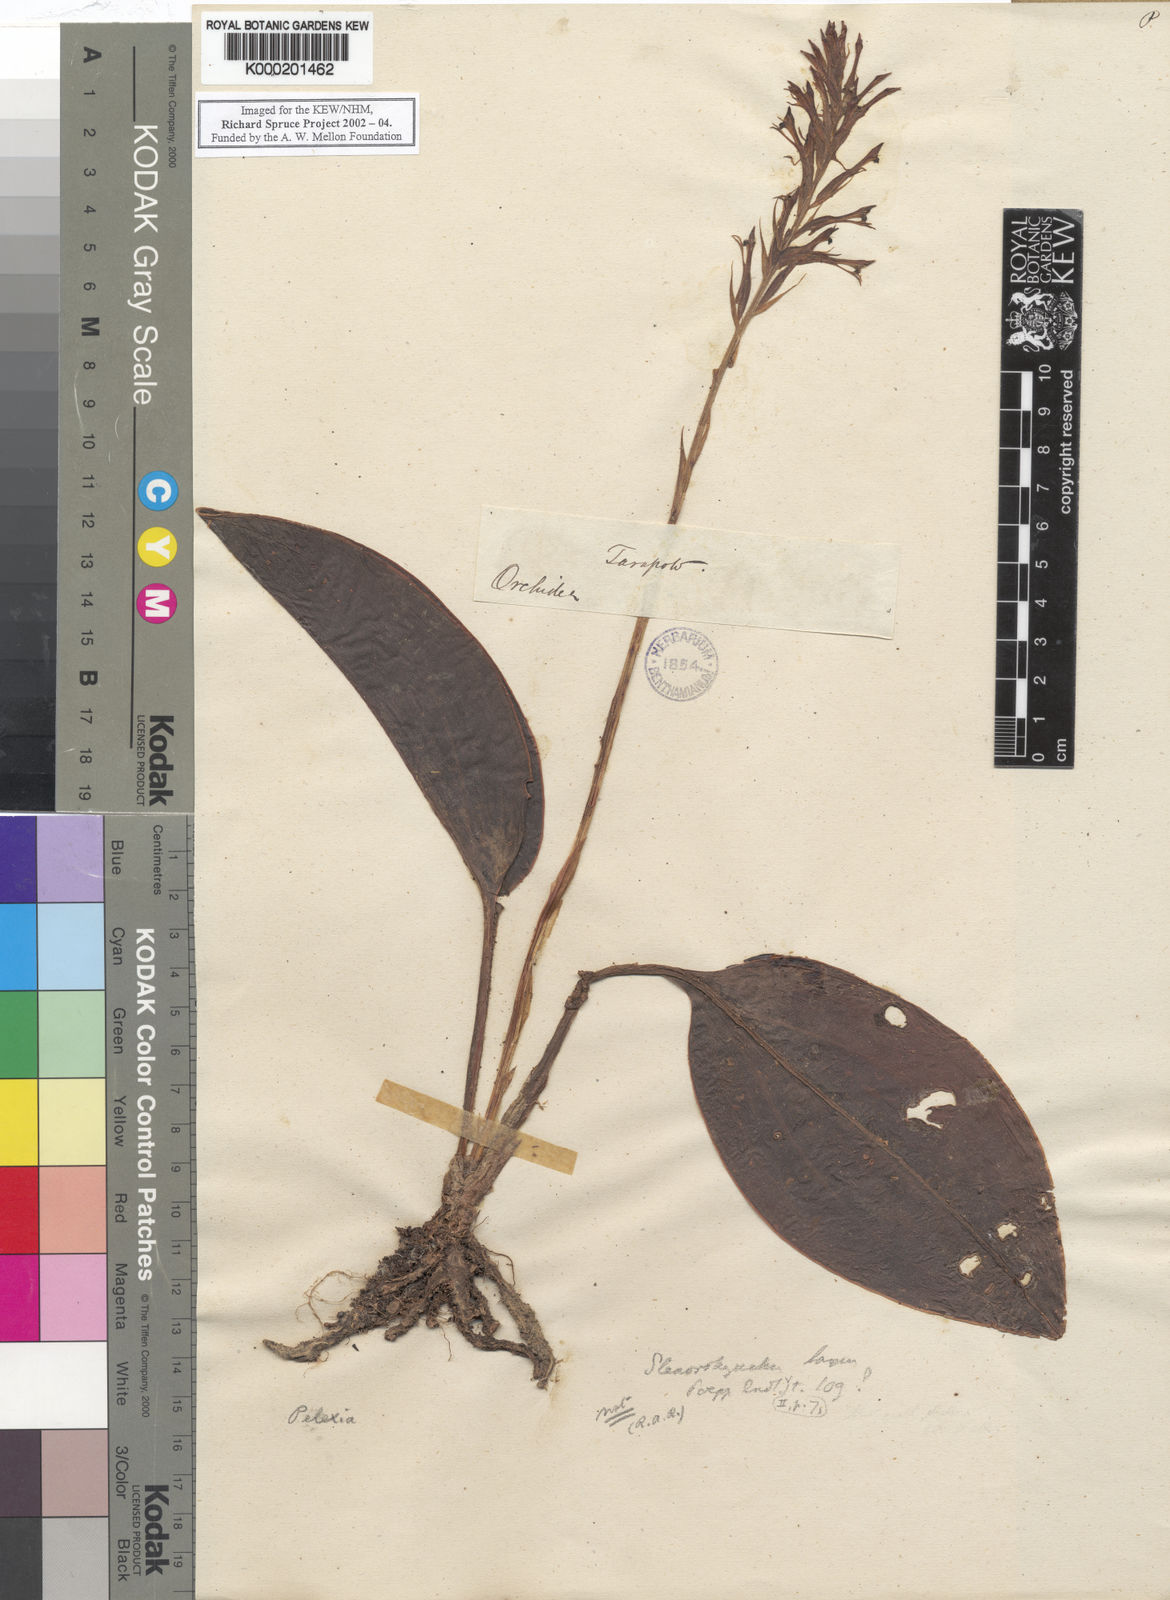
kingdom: Plantae
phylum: Tracheophyta
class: Liliopsida
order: Asparagales
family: Orchidaceae
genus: Pelexia
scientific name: Pelexia
